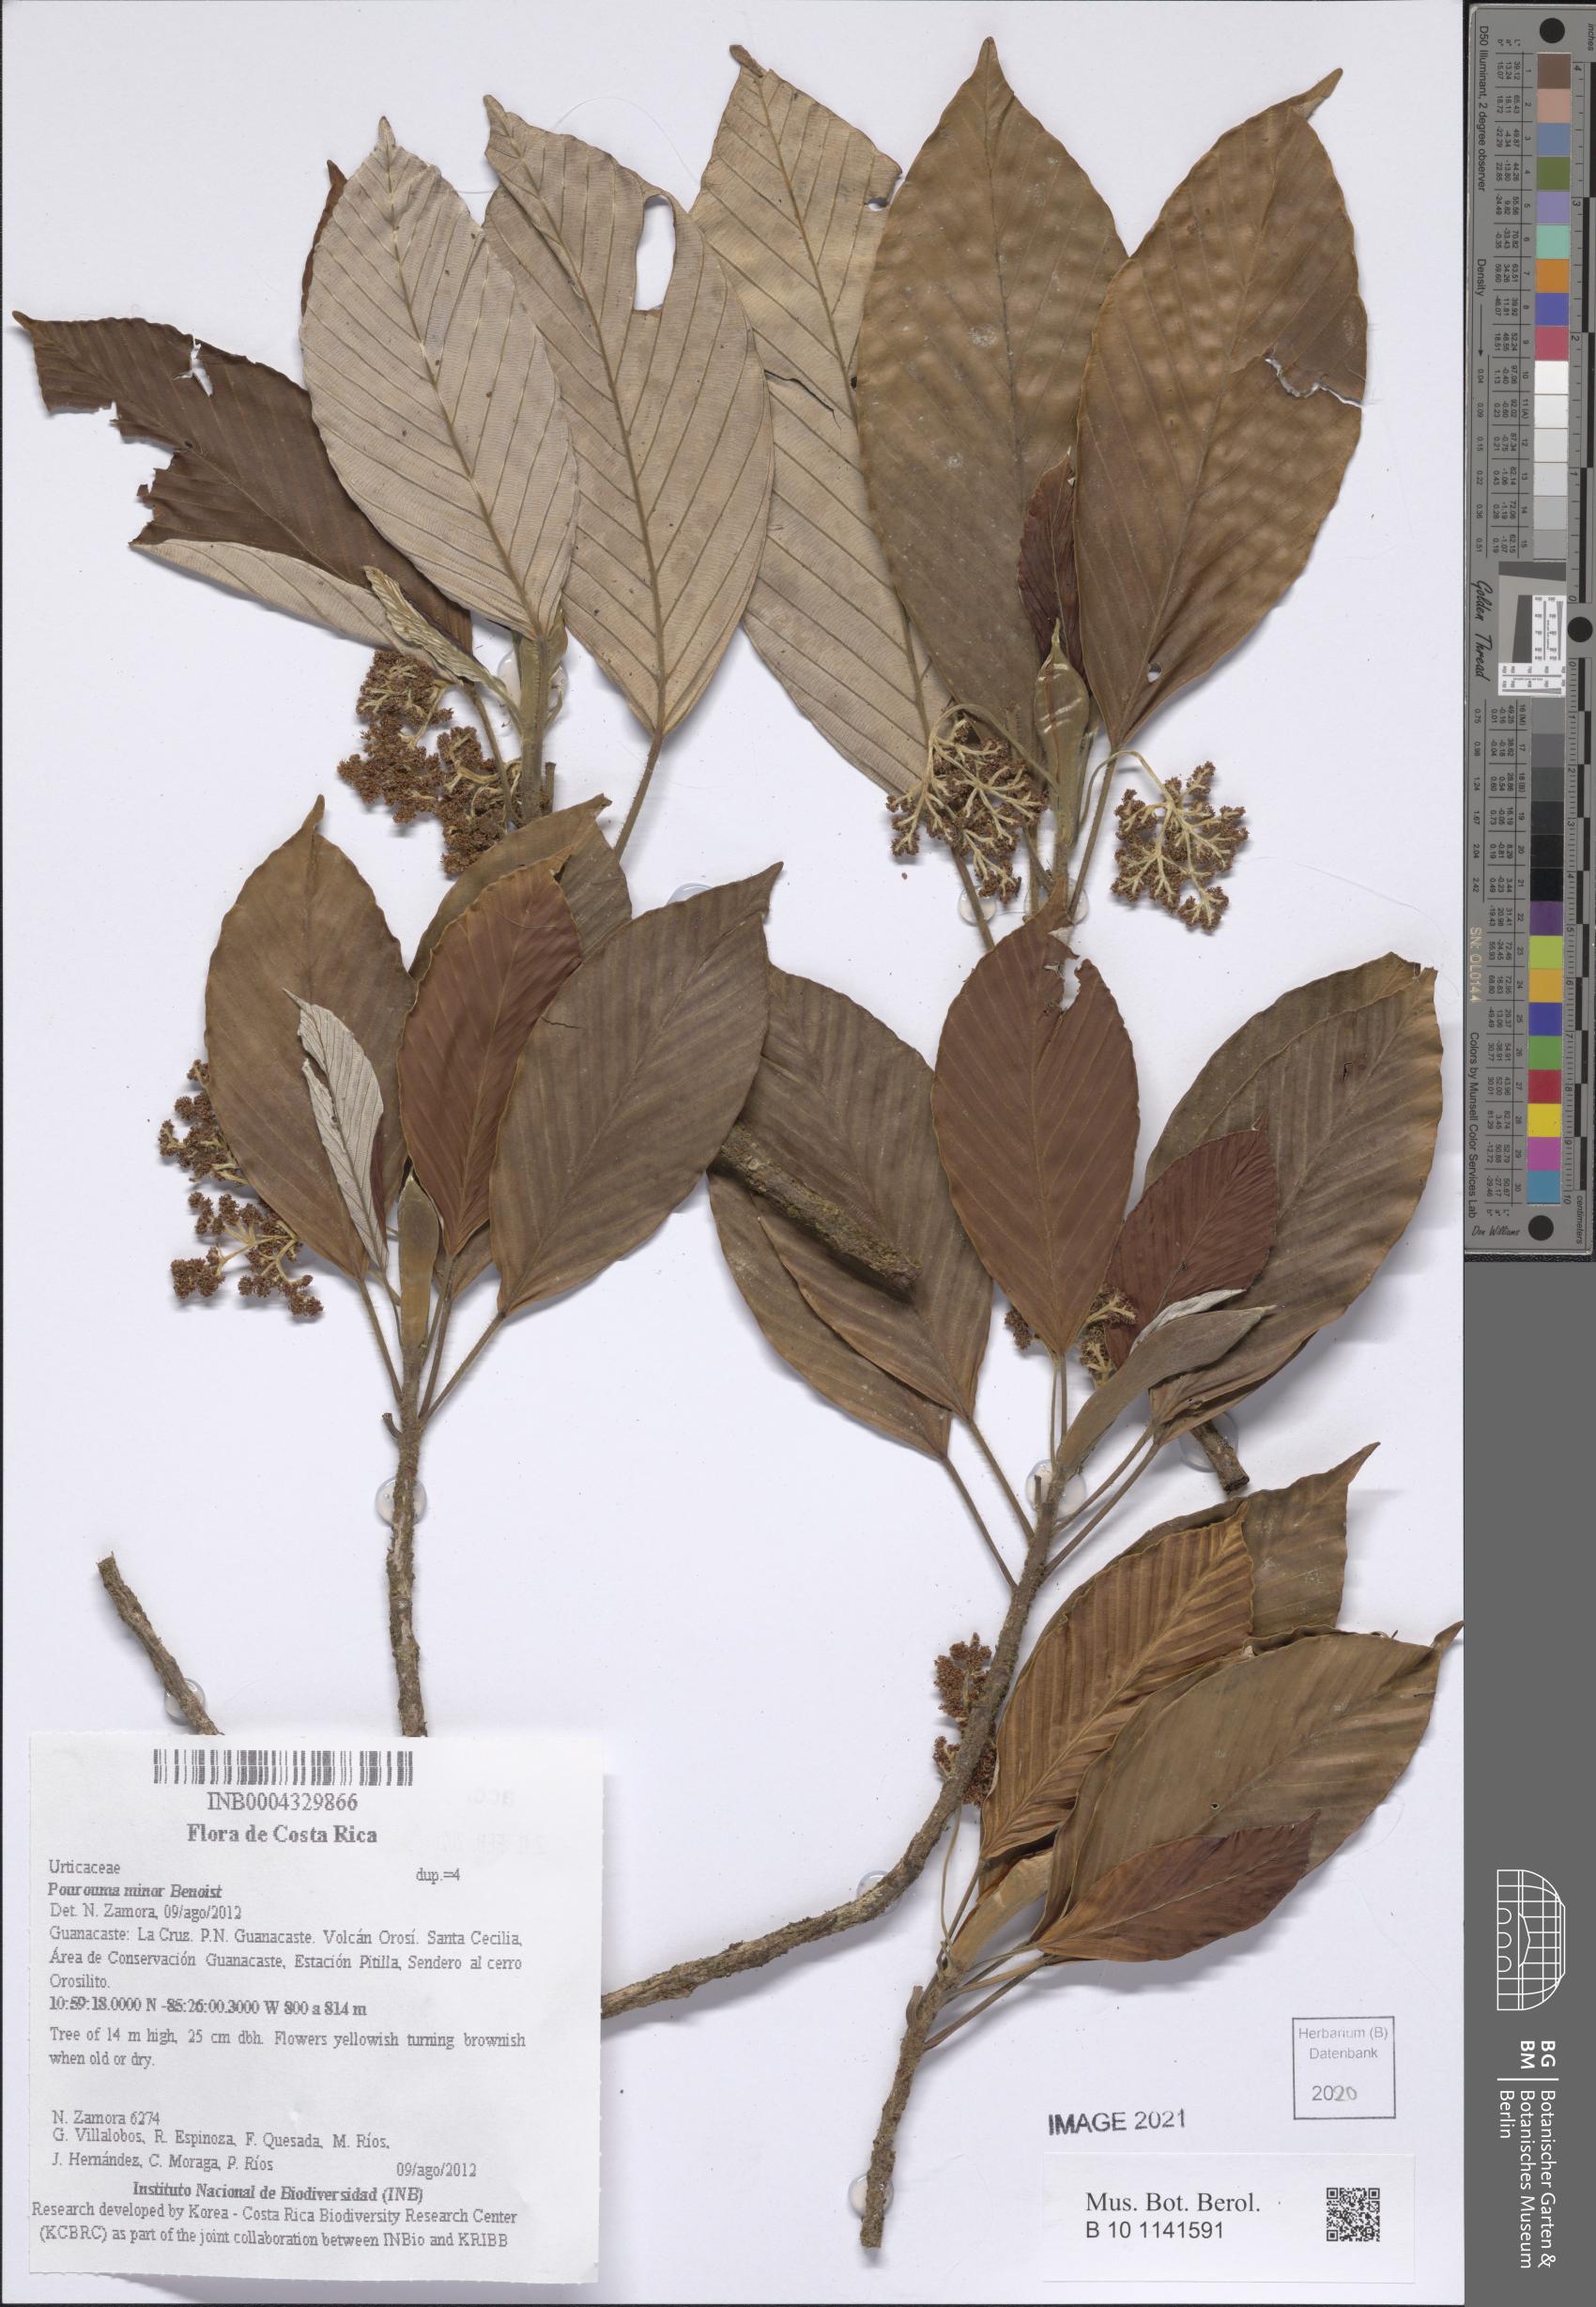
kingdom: Plantae
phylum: Tracheophyta
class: Magnoliopsida
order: Rosales
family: Urticaceae
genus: Pourouma
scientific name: Pourouma minor
